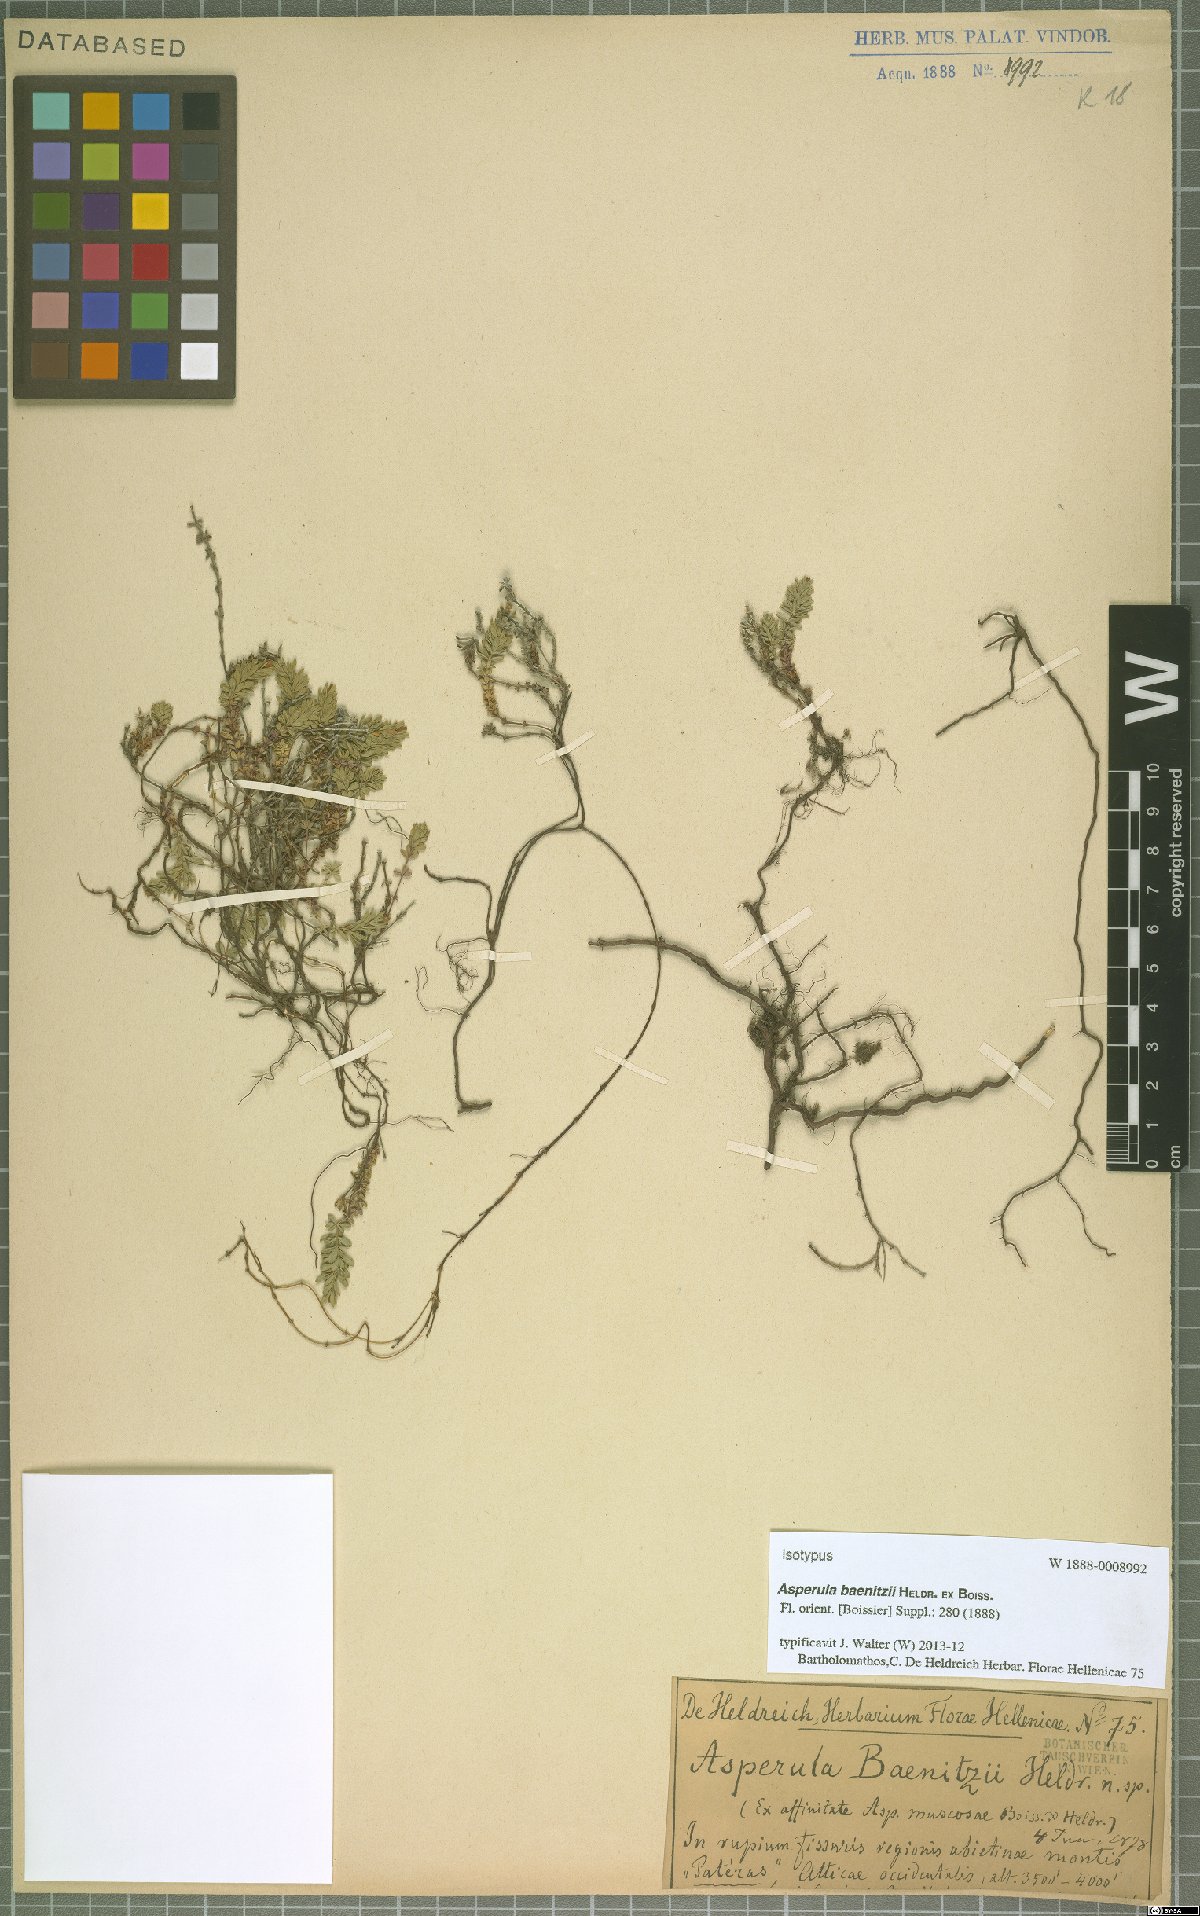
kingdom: Plantae
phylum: Tracheophyta
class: Magnoliopsida
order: Gentianales
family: Rubiaceae
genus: Thliphthisa
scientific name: Thliphthisa baenitzii
